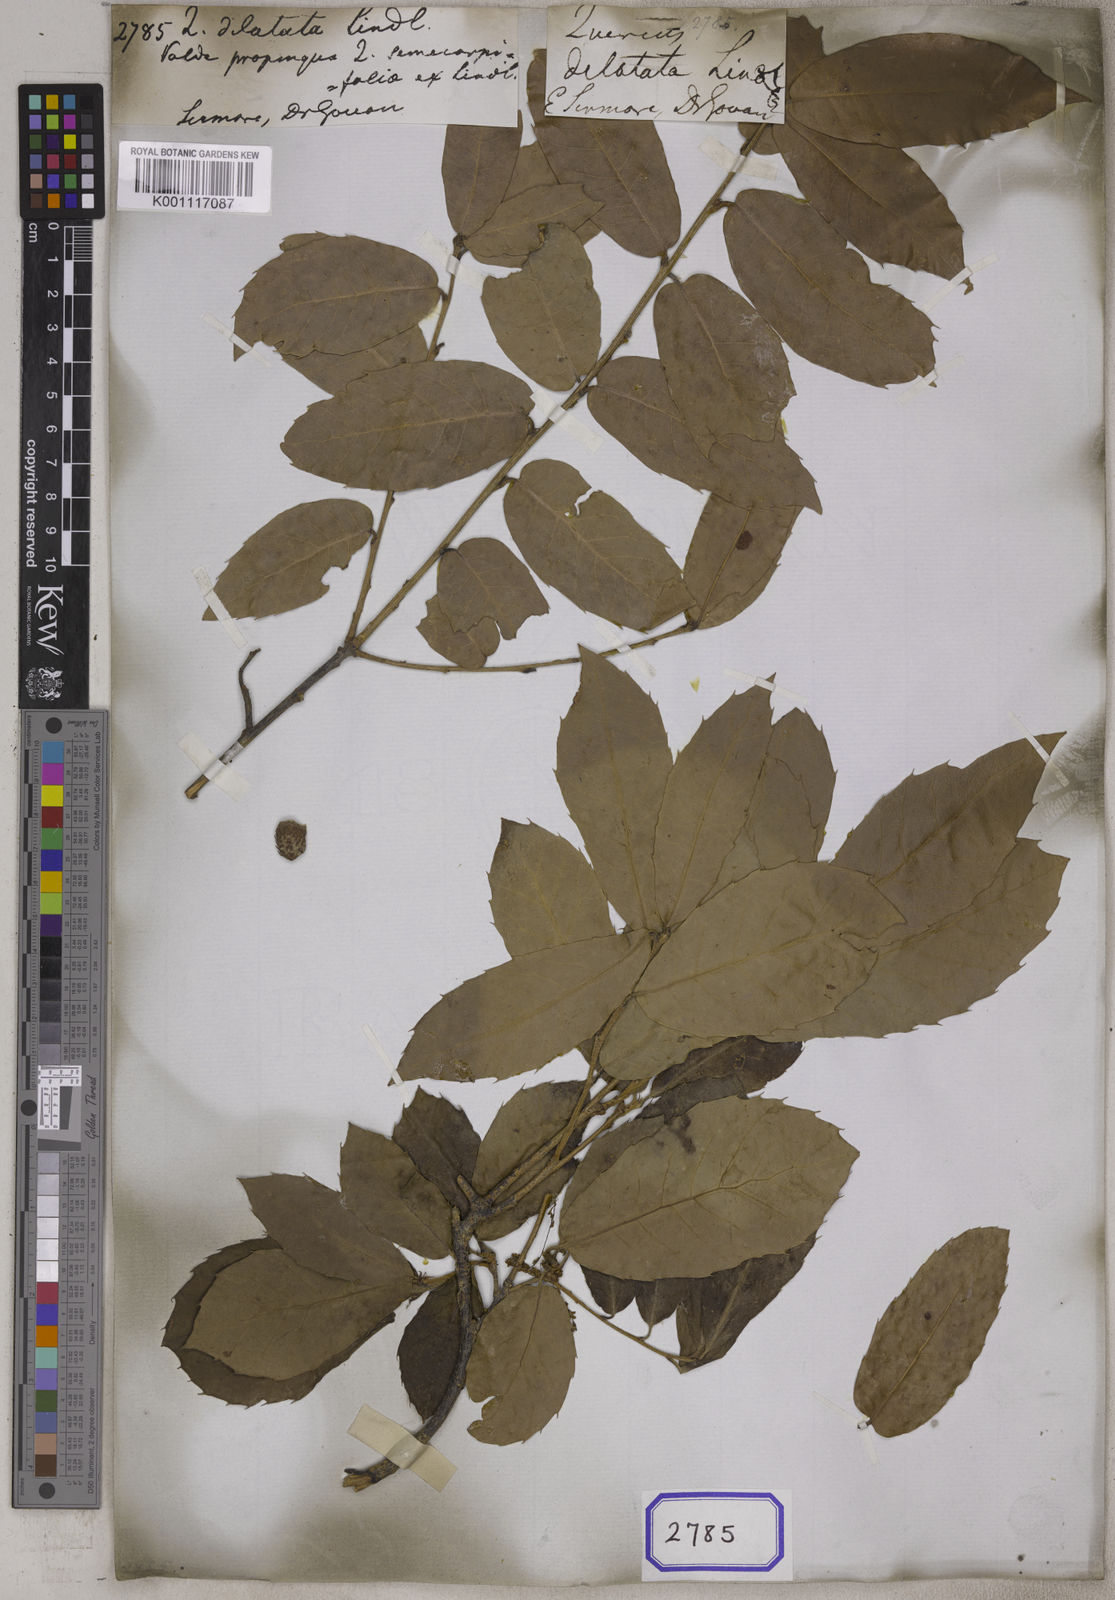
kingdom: Plantae
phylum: Tracheophyta
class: Magnoliopsida
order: Fagales
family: Fagaceae
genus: Quercus
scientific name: Quercus
